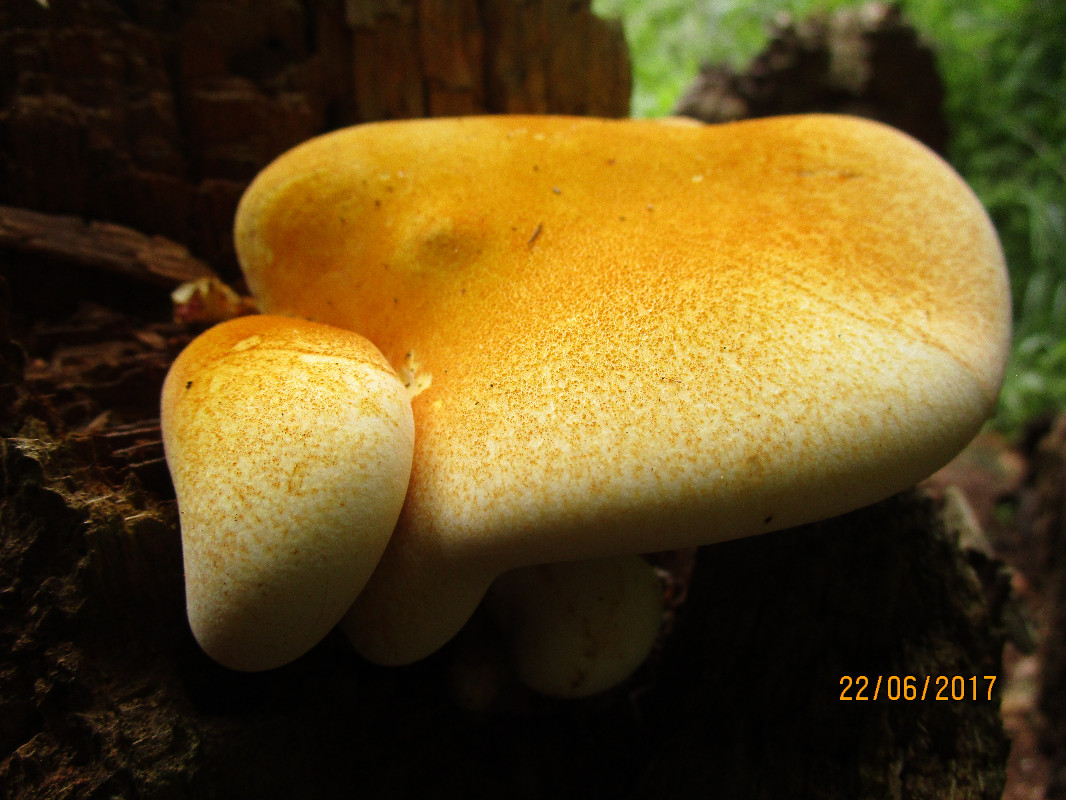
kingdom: Fungi
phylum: Basidiomycota
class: Agaricomycetes
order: Polyporales
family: Fomitopsidaceae
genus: Buglossoporus
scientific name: Buglossoporus quercinus
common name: egetunge
